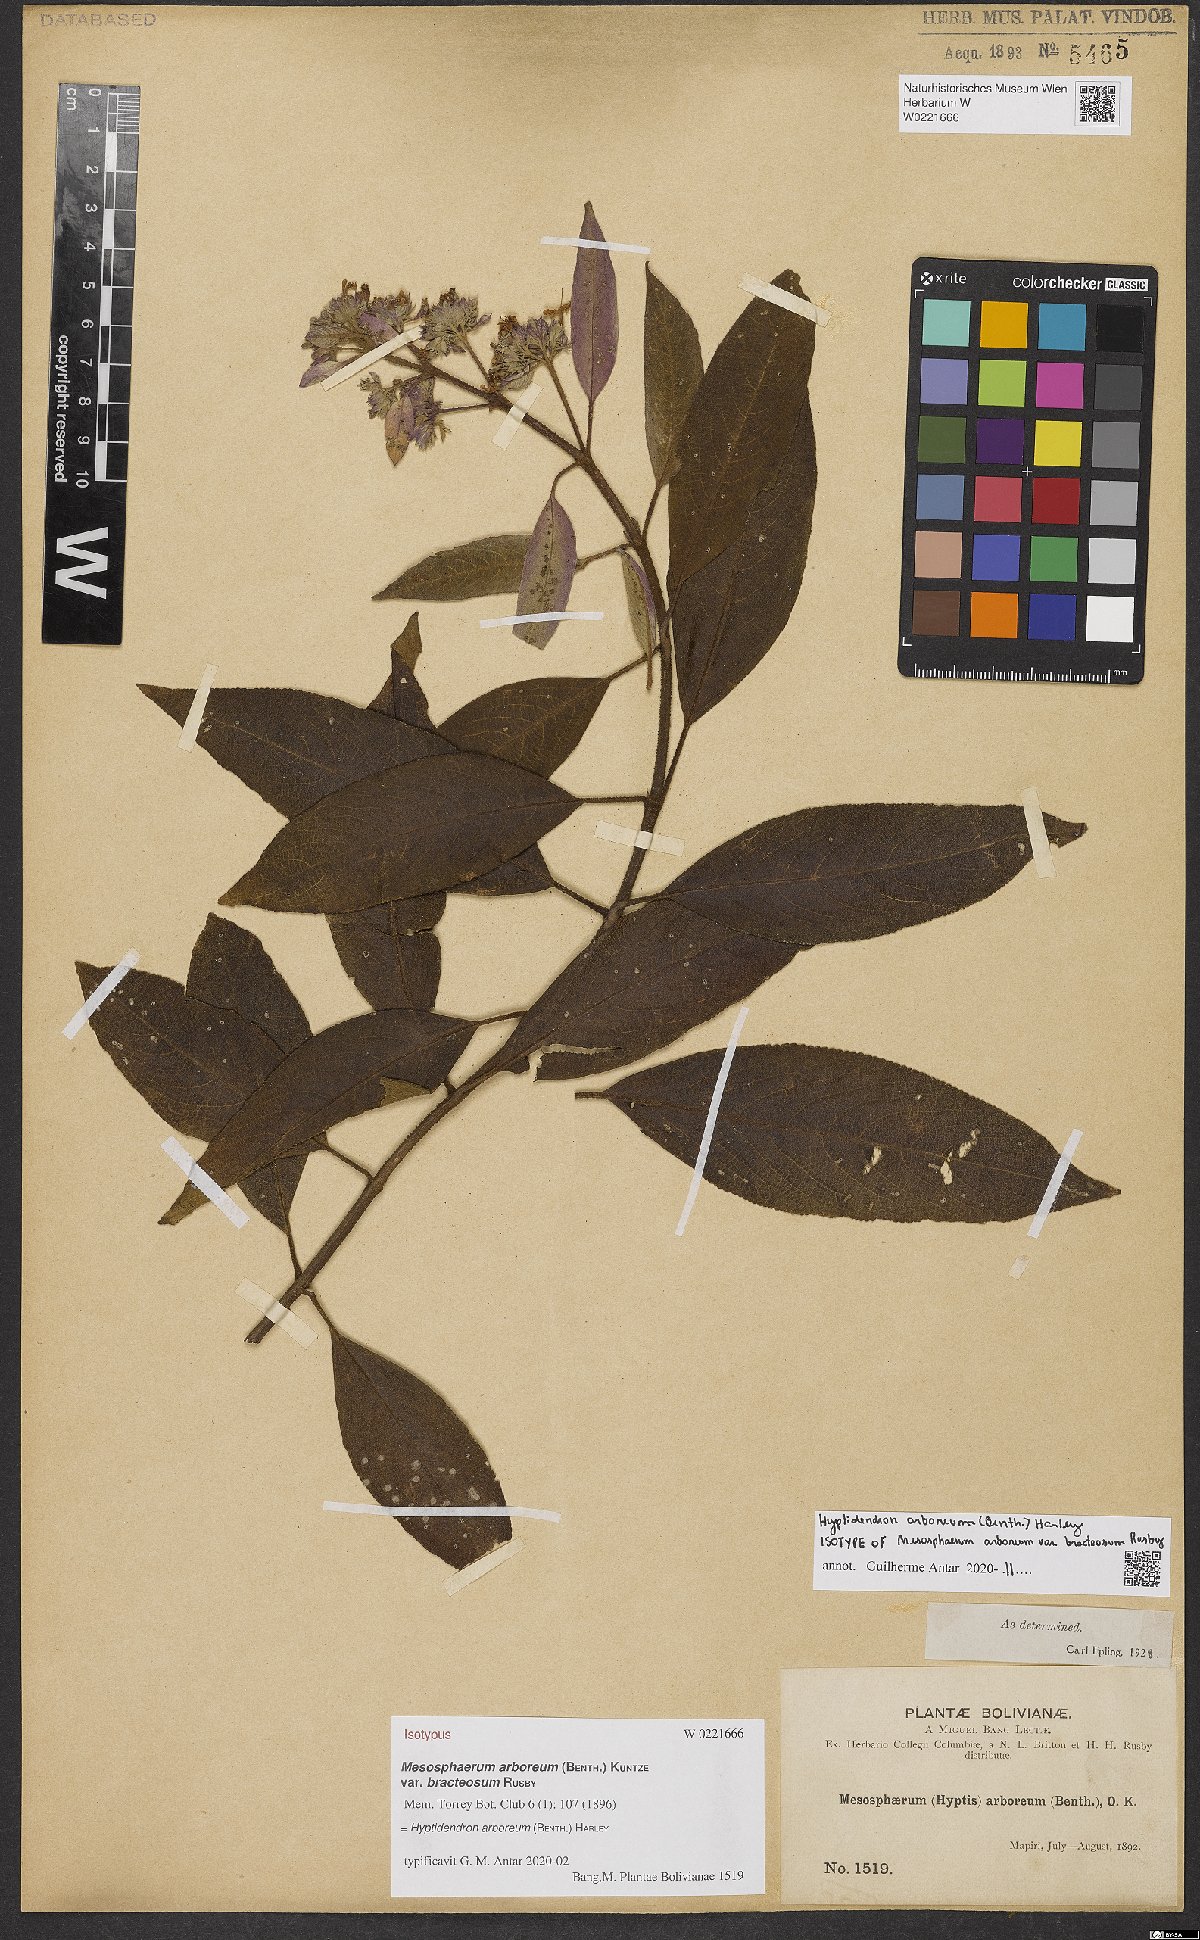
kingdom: Plantae
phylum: Tracheophyta
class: Magnoliopsida
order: Lamiales
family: Lamiaceae
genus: Hyptidendron
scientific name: Hyptidendron arboreum
